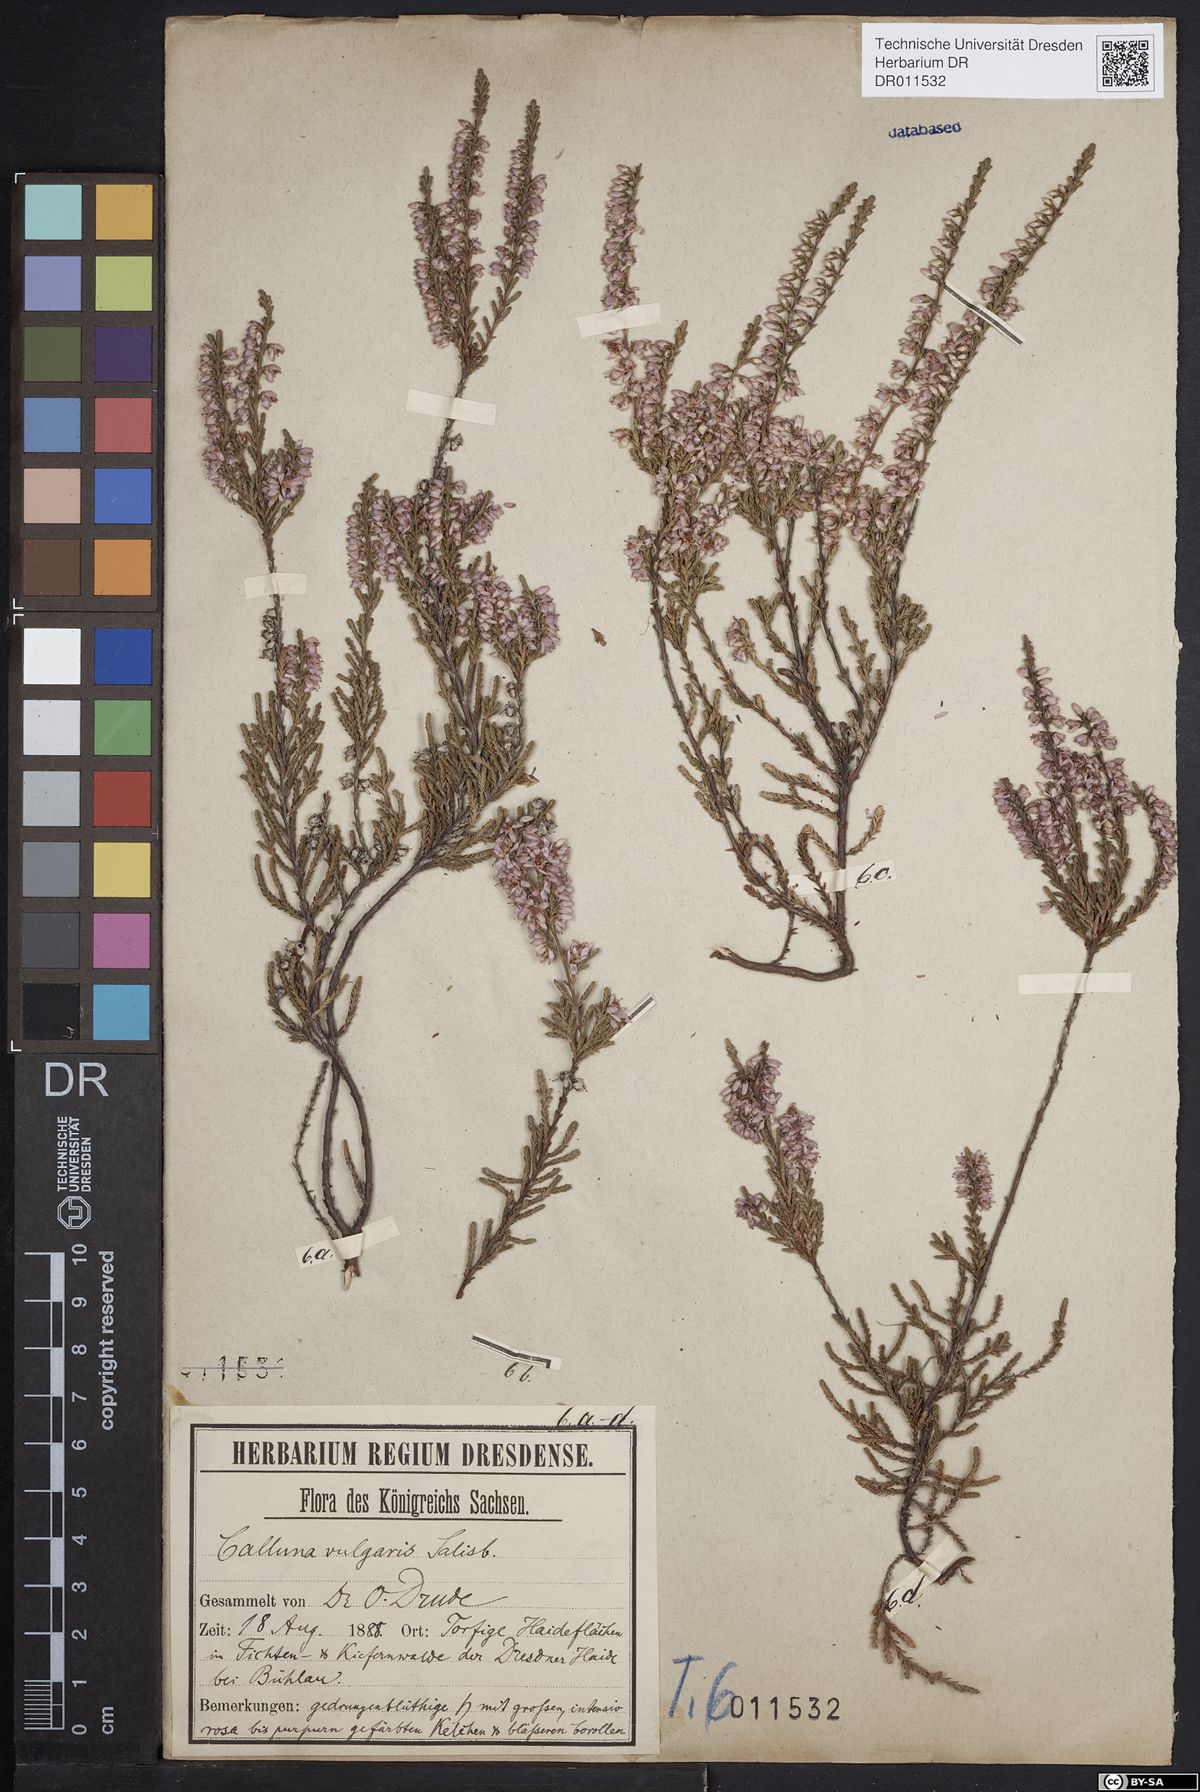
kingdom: Plantae
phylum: Tracheophyta
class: Magnoliopsida
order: Ericales
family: Ericaceae
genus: Calluna
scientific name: Calluna vulgaris
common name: Heather
